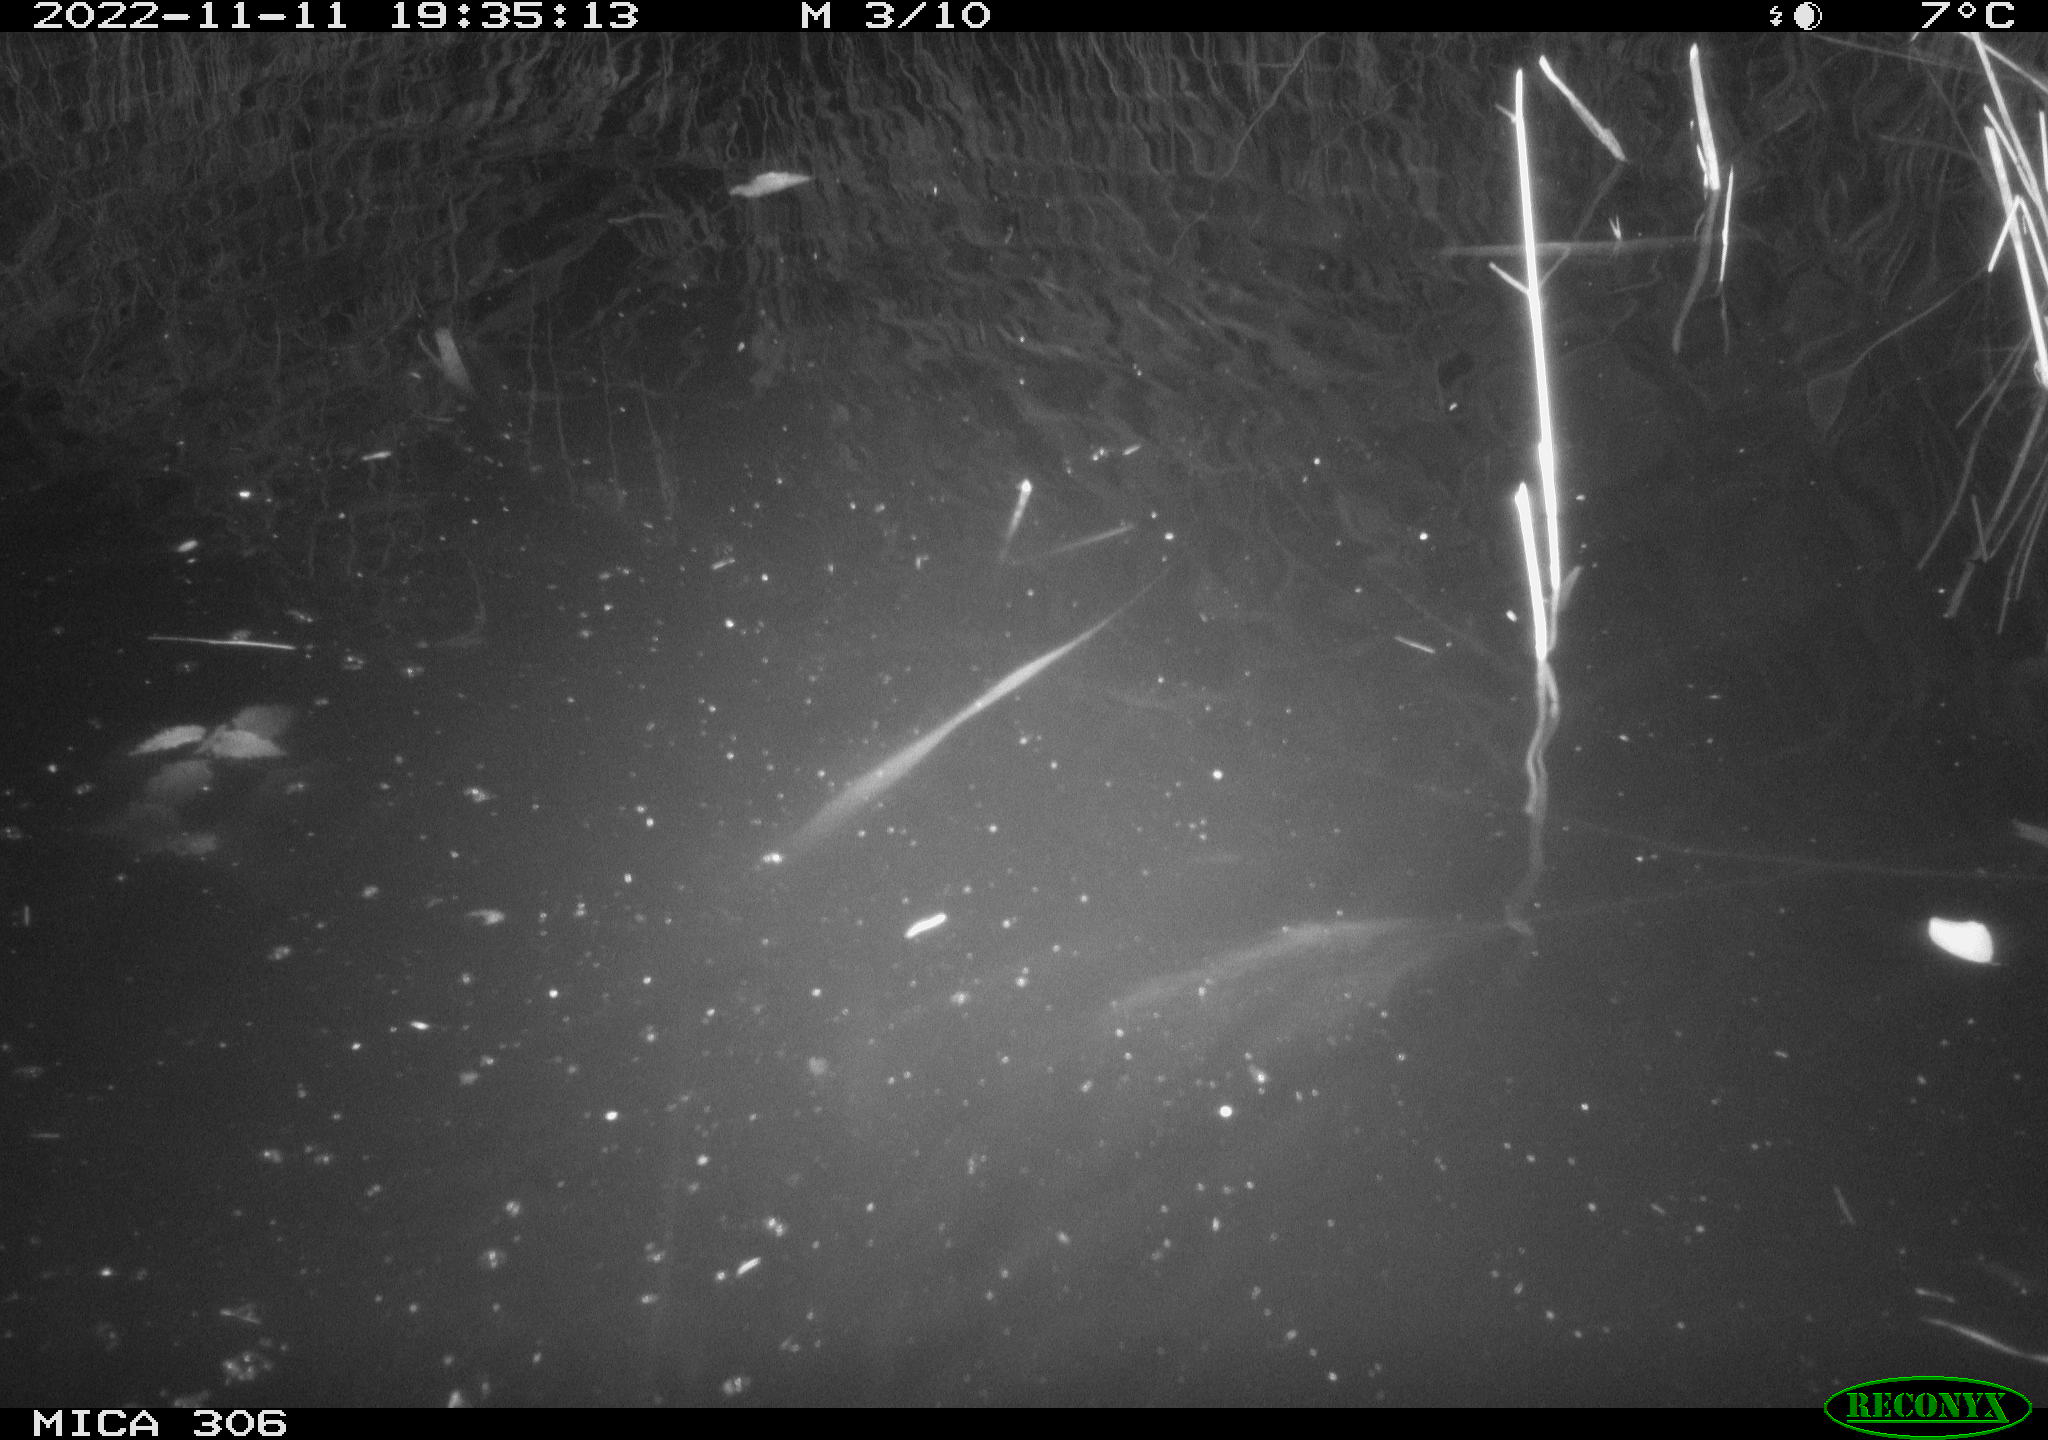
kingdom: Animalia
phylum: Chordata
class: Mammalia
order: Rodentia
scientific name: Rodentia
